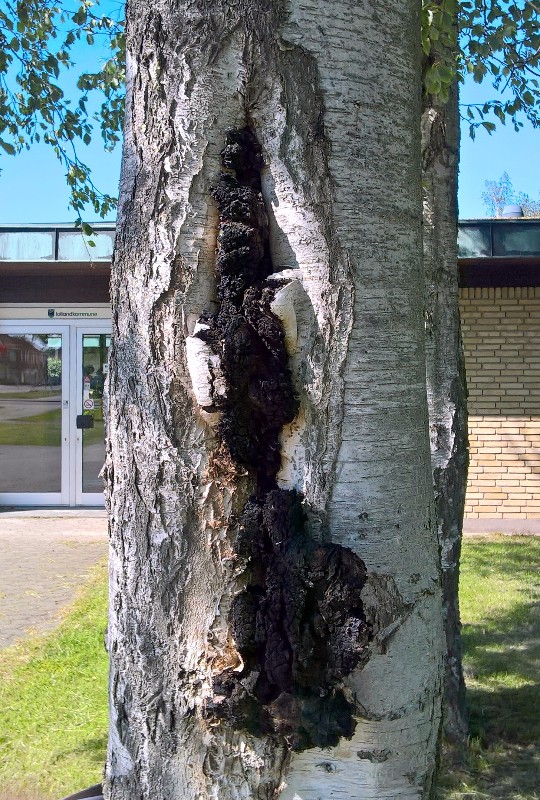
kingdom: Fungi
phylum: Basidiomycota
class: Agaricomycetes
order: Hymenochaetales
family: Hymenochaetaceae
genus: Inonotus
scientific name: Inonotus obliquus
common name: birke-spejlporesvamp
